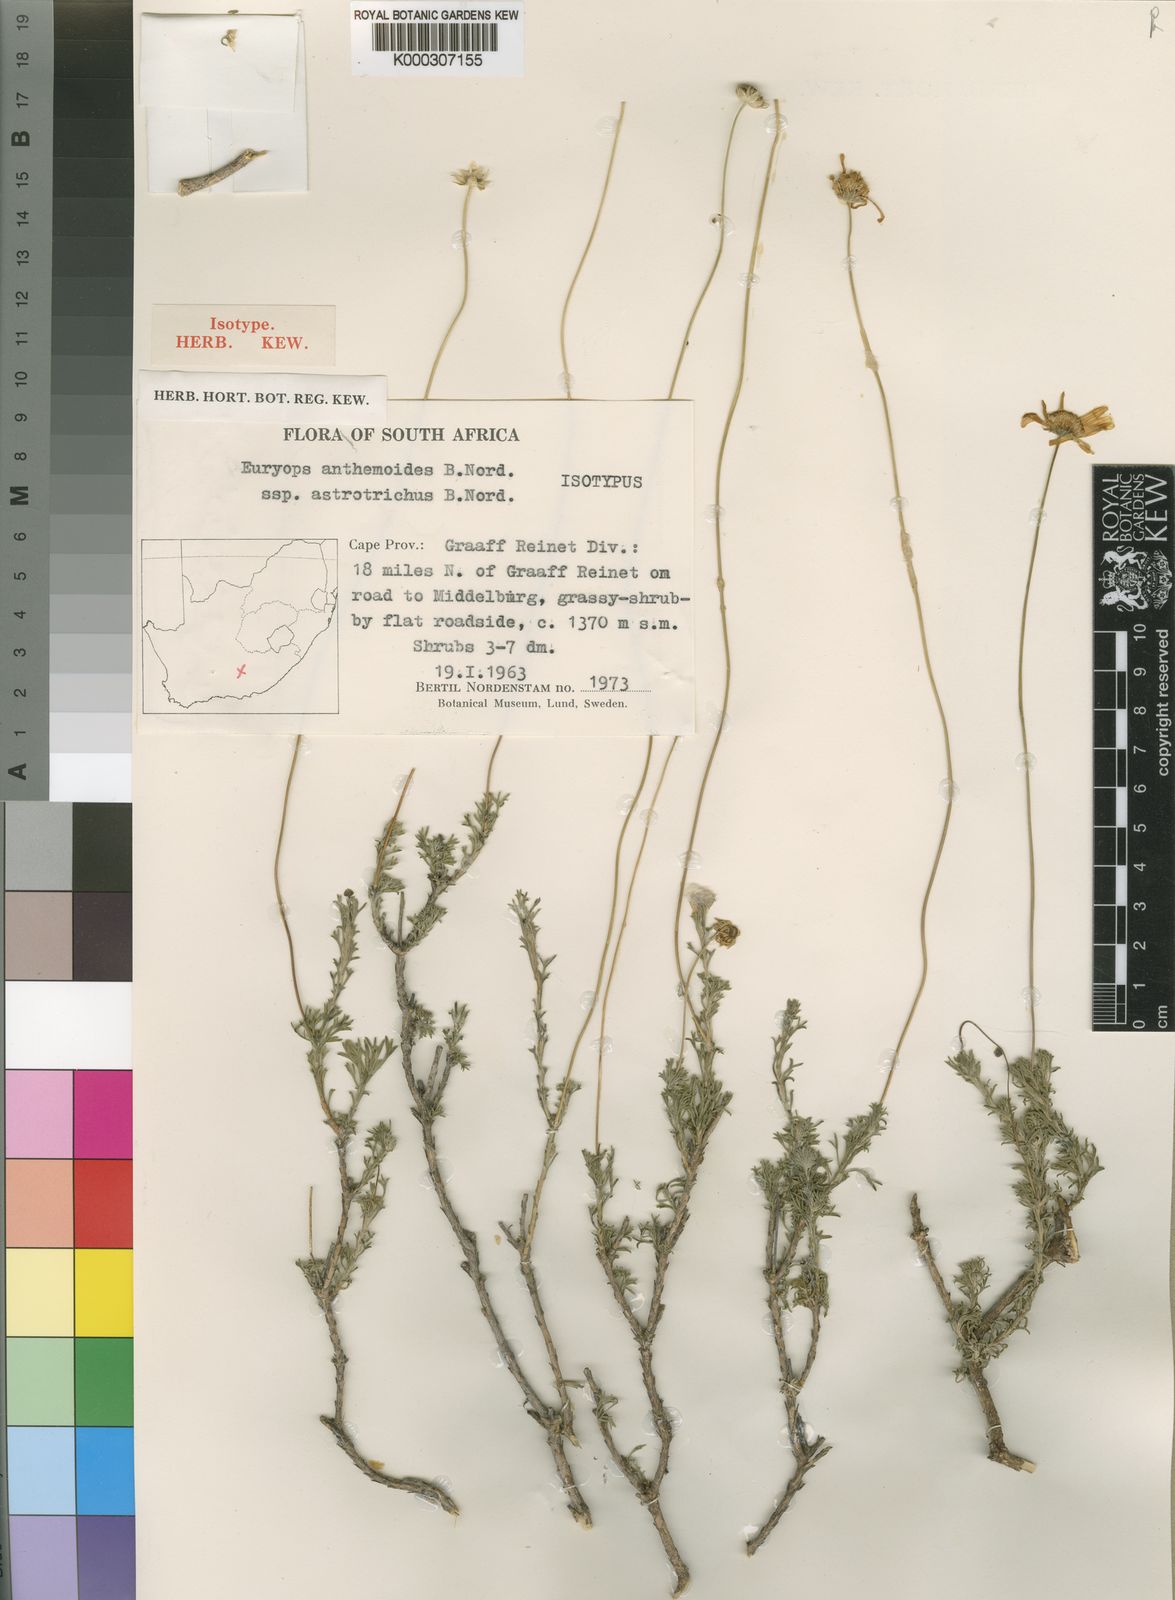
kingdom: Plantae
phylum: Tracheophyta
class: Magnoliopsida
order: Asterales
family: Asteraceae
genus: Euryops
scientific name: Euryops anthemoides
